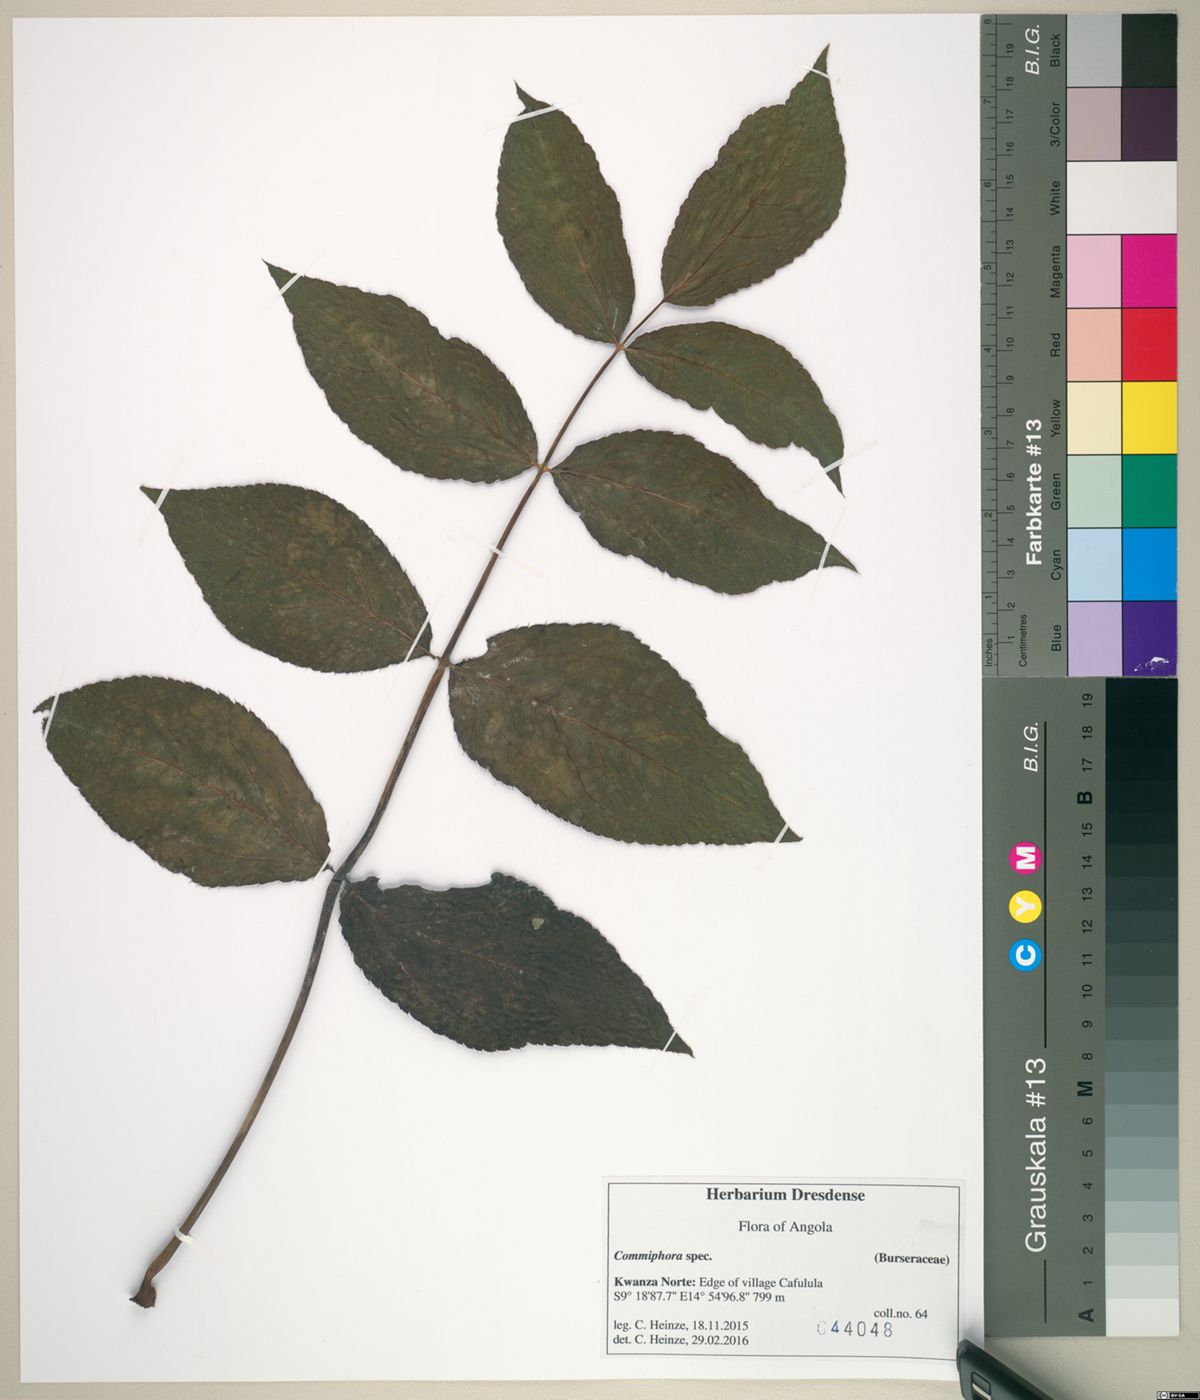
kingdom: Plantae
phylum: Tracheophyta
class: Magnoliopsida
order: Sapindales
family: Burseraceae
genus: Commiphora
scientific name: Commiphora
